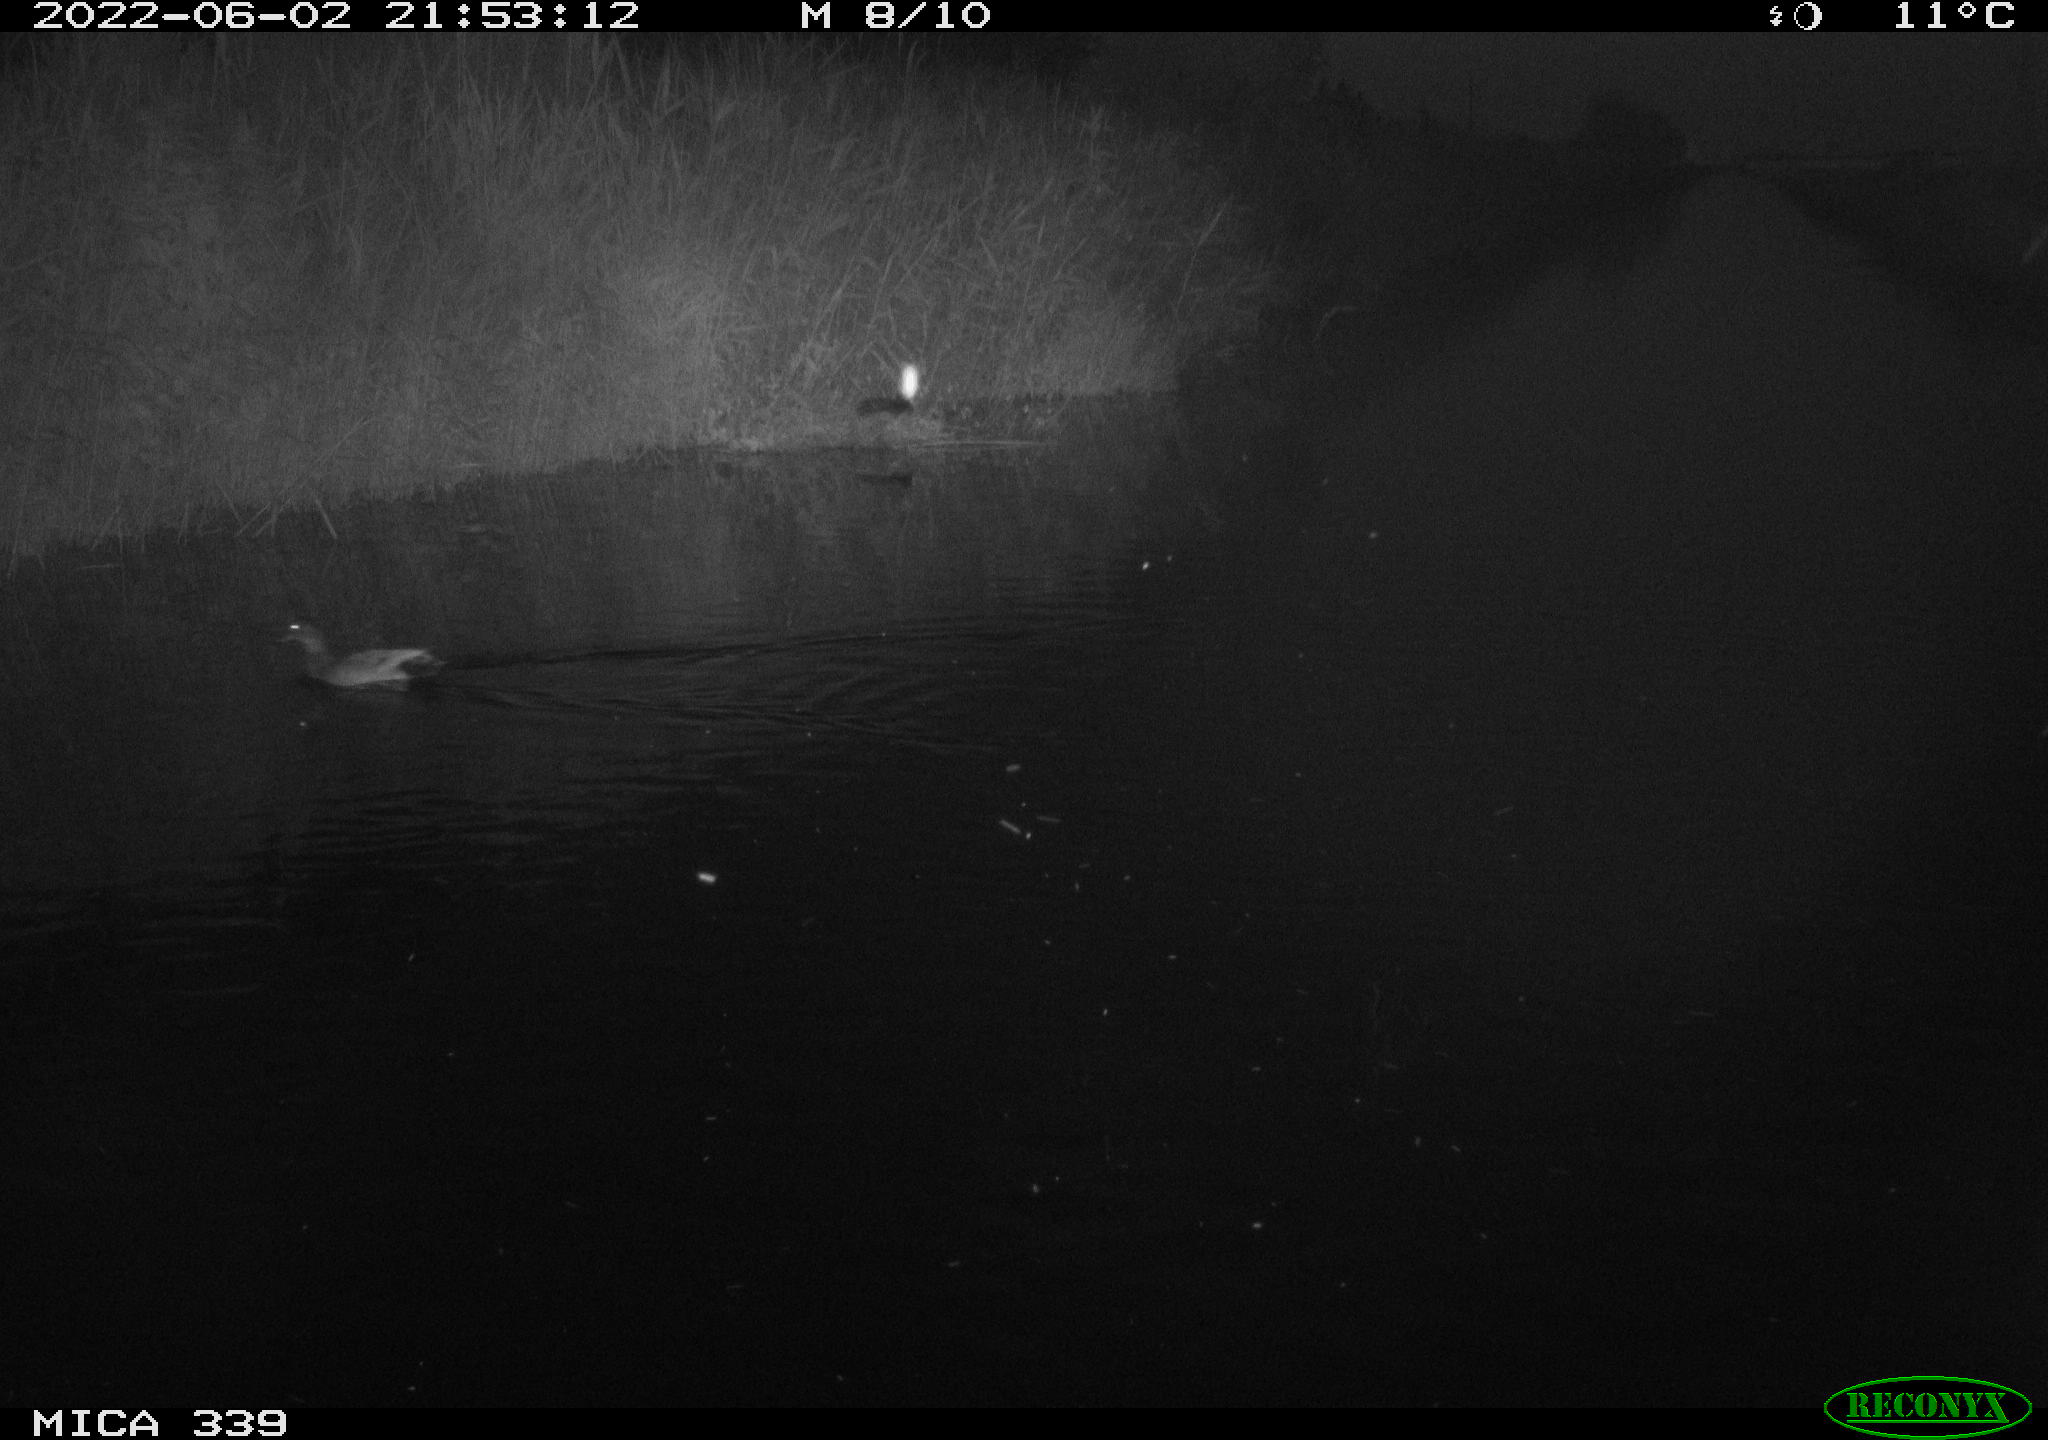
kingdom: Animalia
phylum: Chordata
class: Aves
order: Anseriformes
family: Anatidae
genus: Anas
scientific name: Anas platyrhynchos
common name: Mallard
